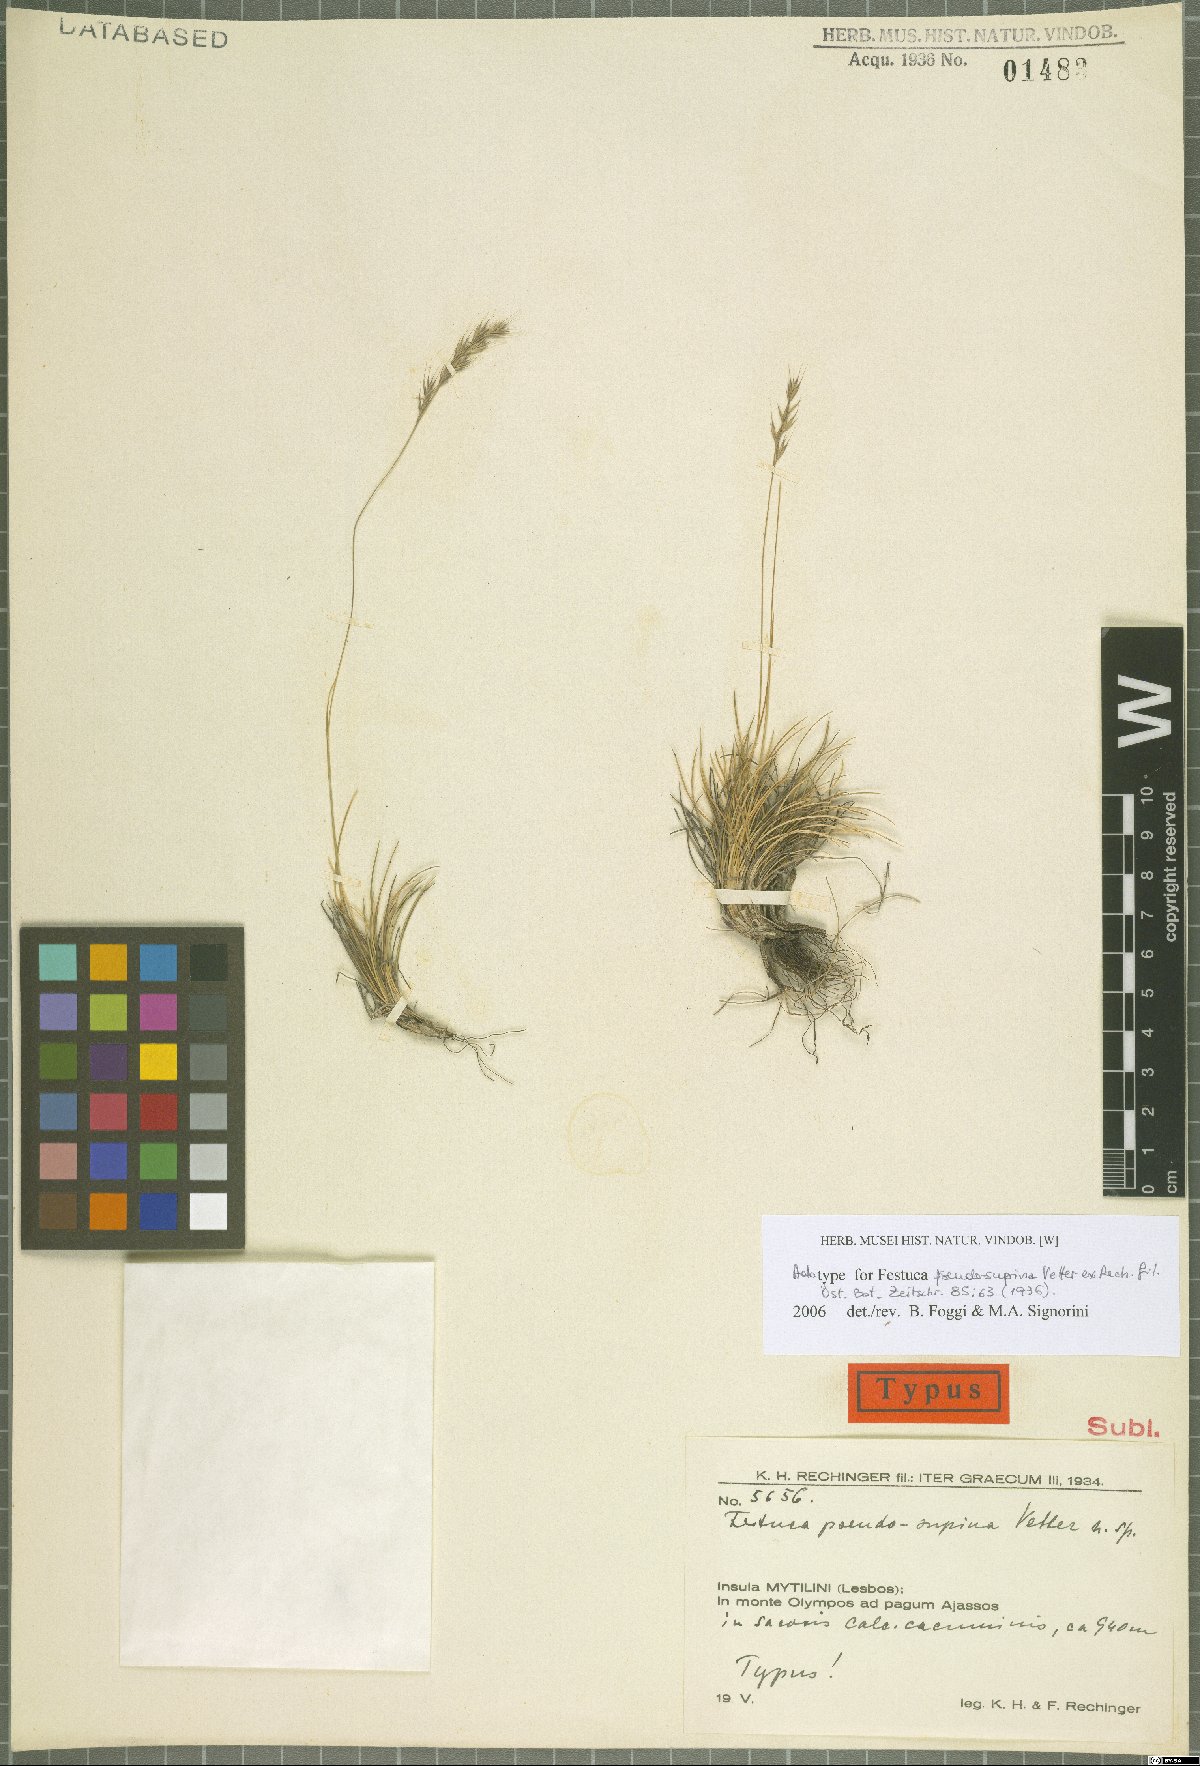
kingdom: Plantae
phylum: Tracheophyta
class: Liliopsida
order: Poales
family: Poaceae
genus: Festuca
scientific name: Festuca pseudosupina
